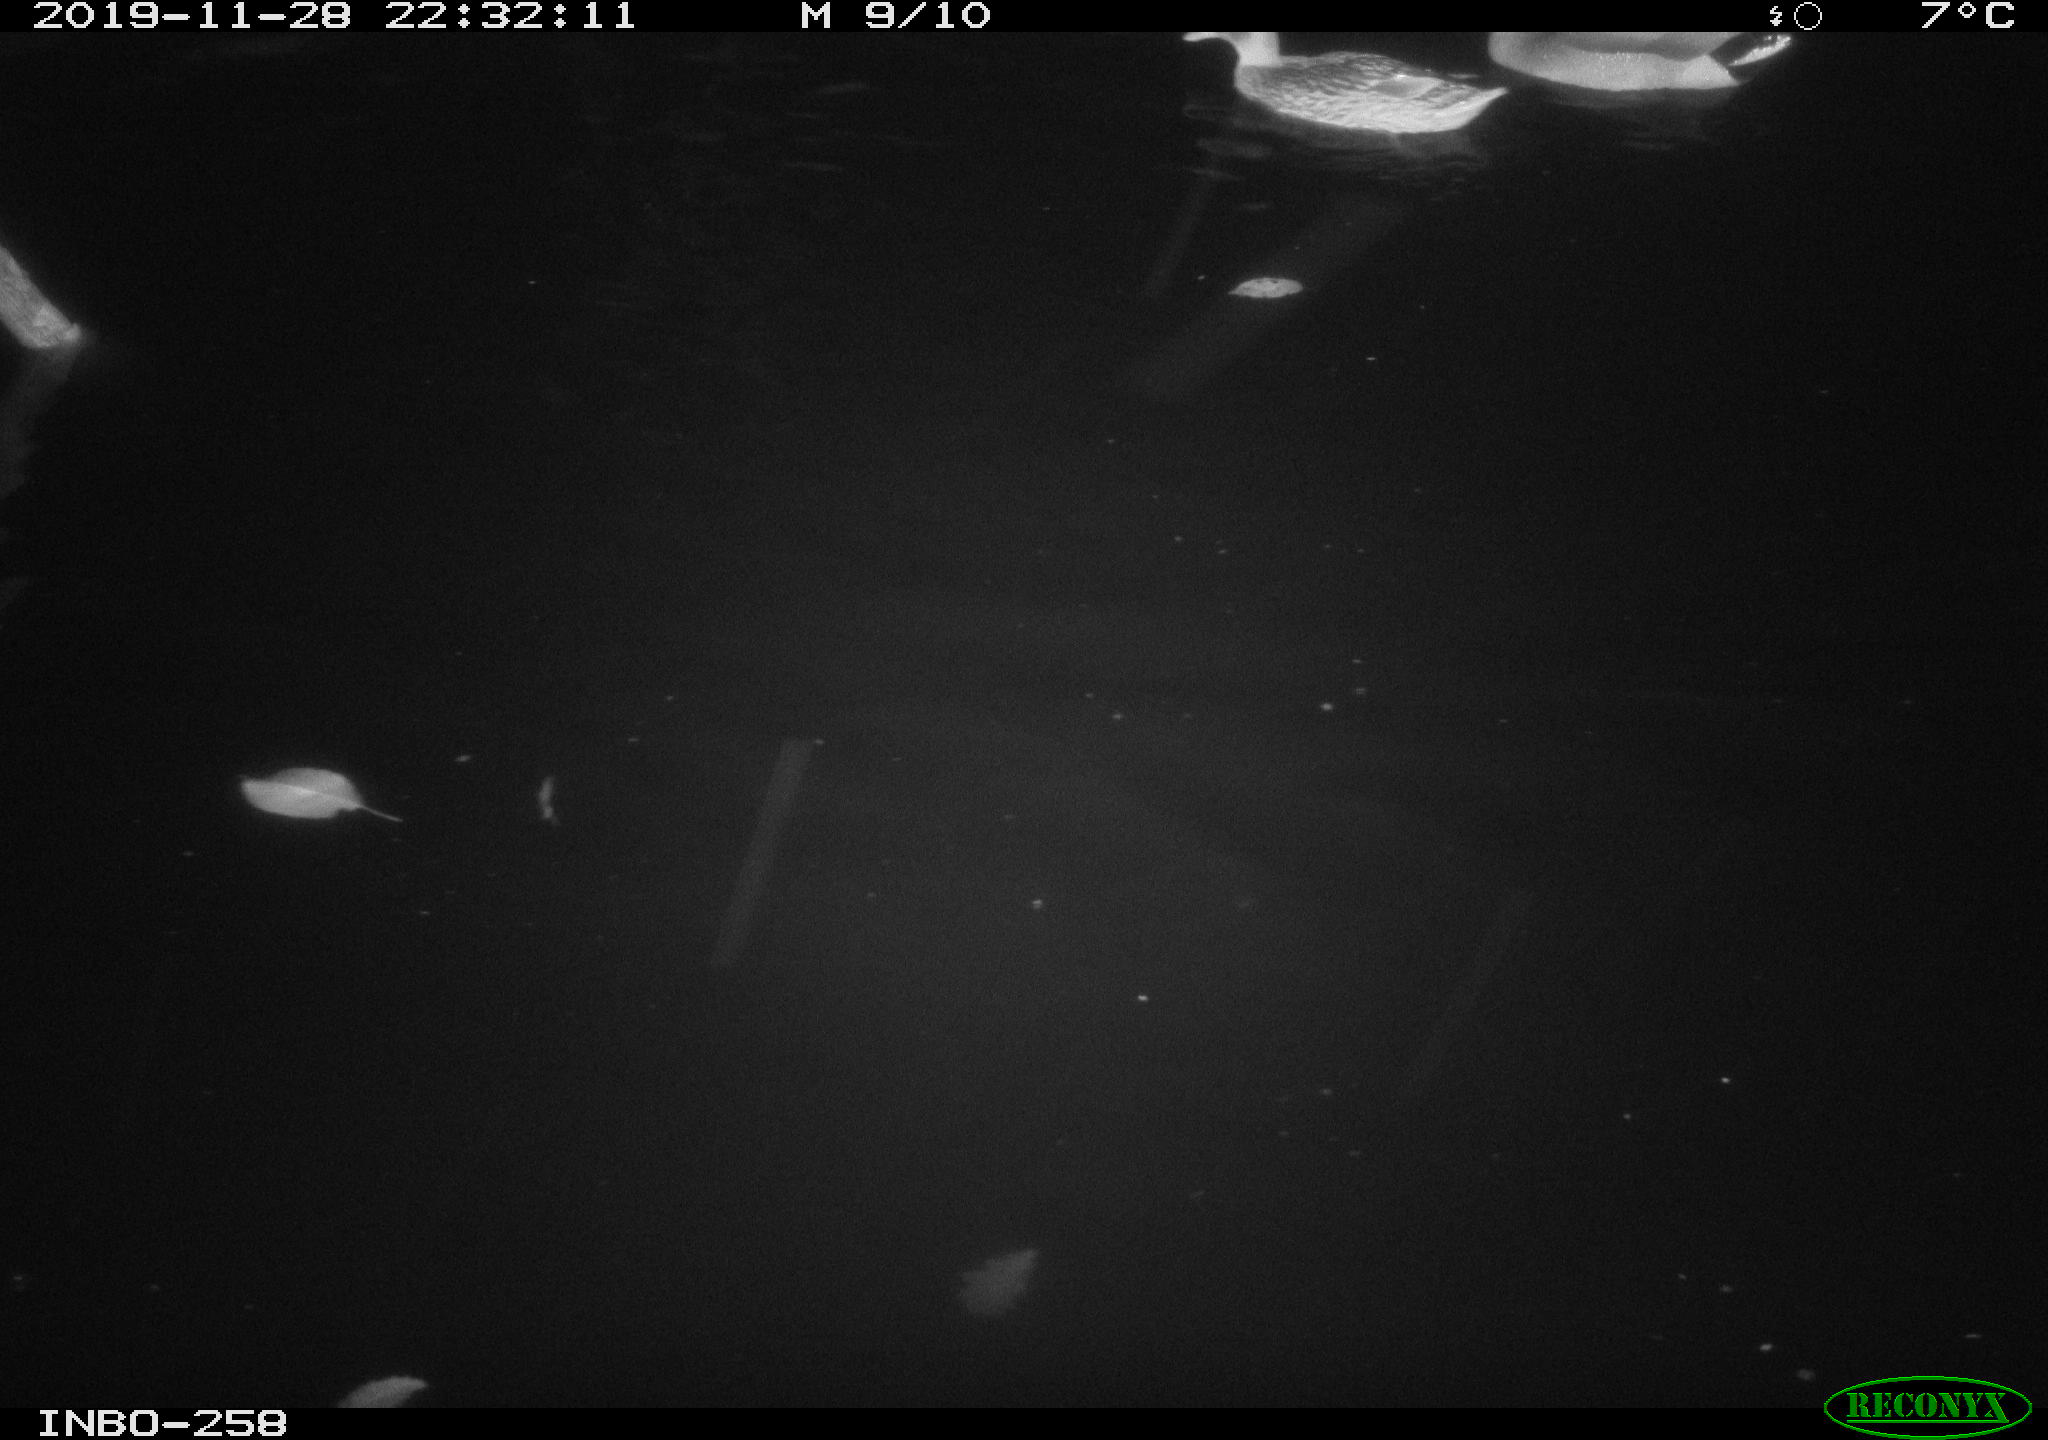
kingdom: Animalia
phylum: Chordata
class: Aves
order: Anseriformes
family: Anatidae
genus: Anas
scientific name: Anas platyrhynchos
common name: Mallard
